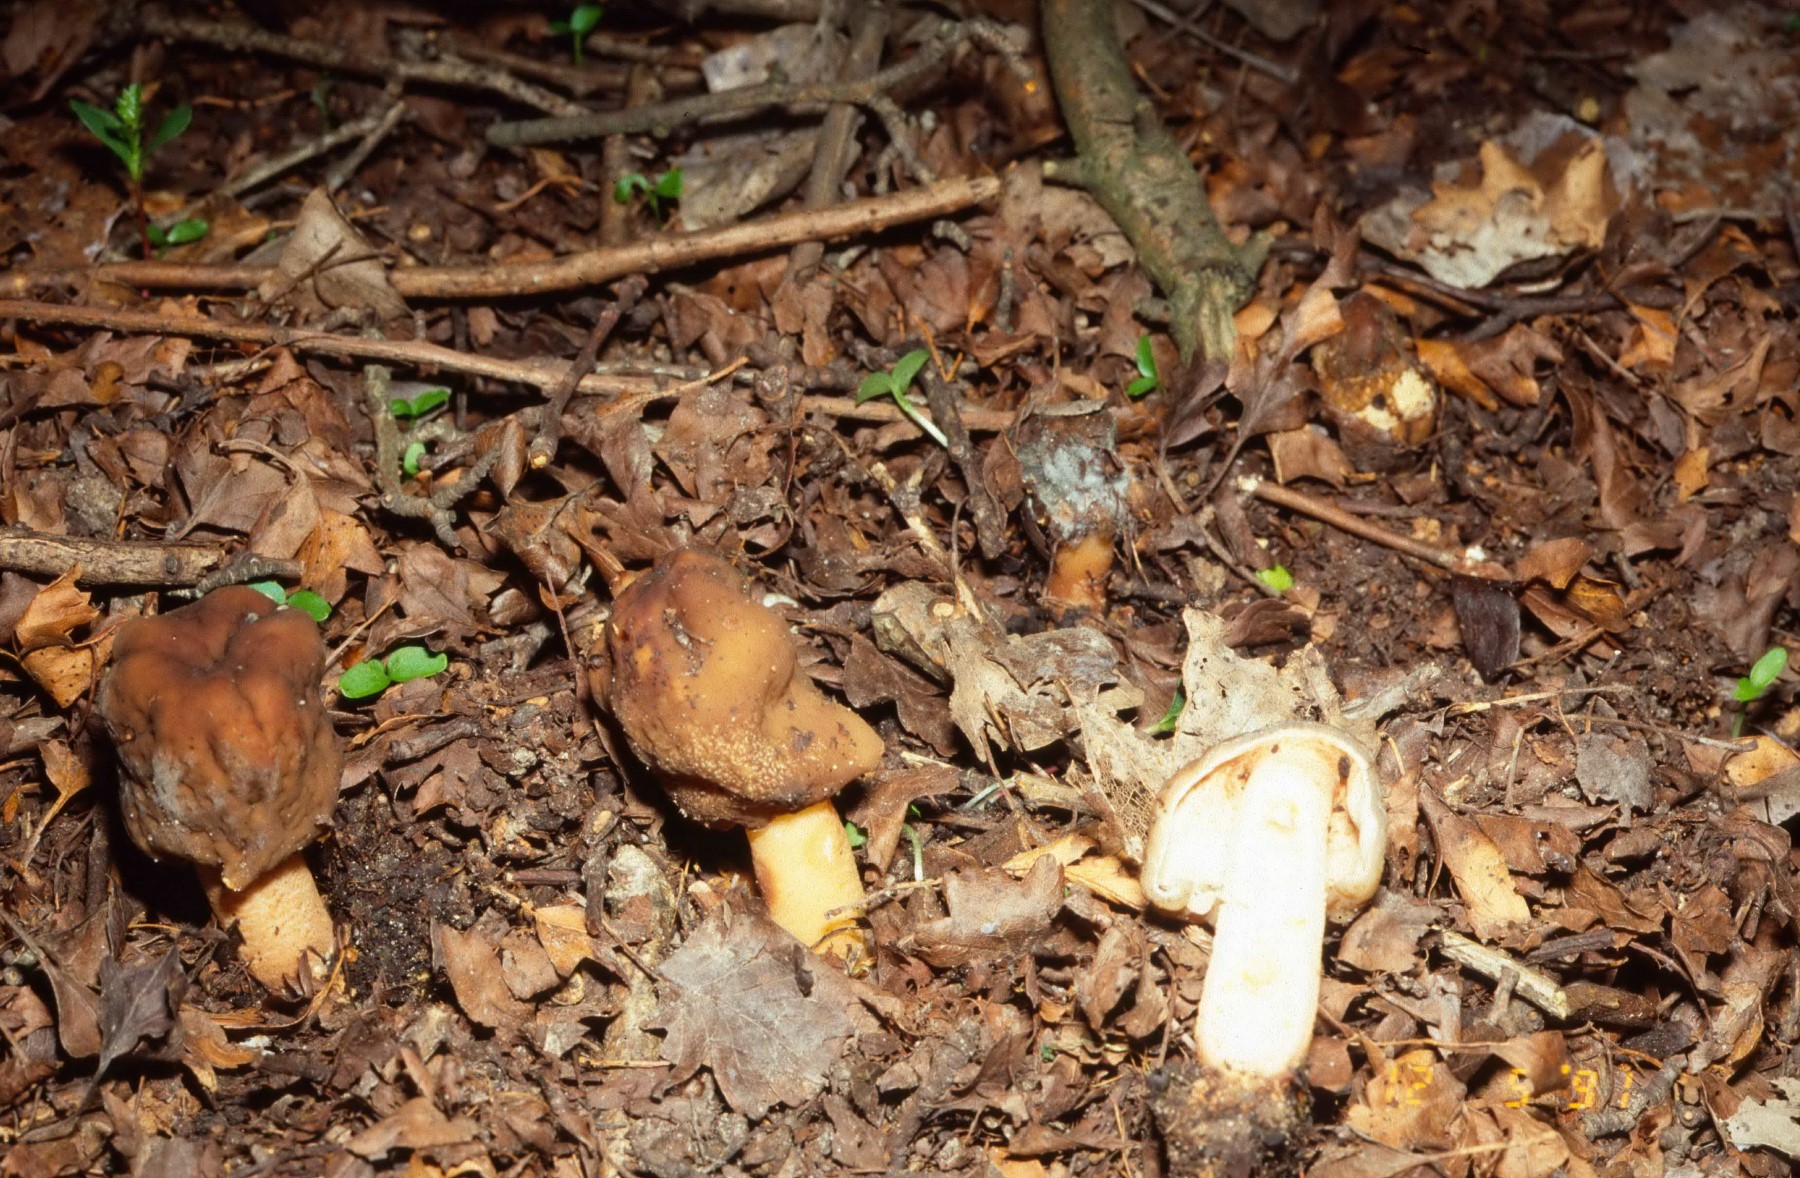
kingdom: Fungi
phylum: Ascomycota
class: Pezizomycetes
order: Pezizales
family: Morchellaceae
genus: Verpa
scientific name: Verpa conica
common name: glat klokkemorkel
